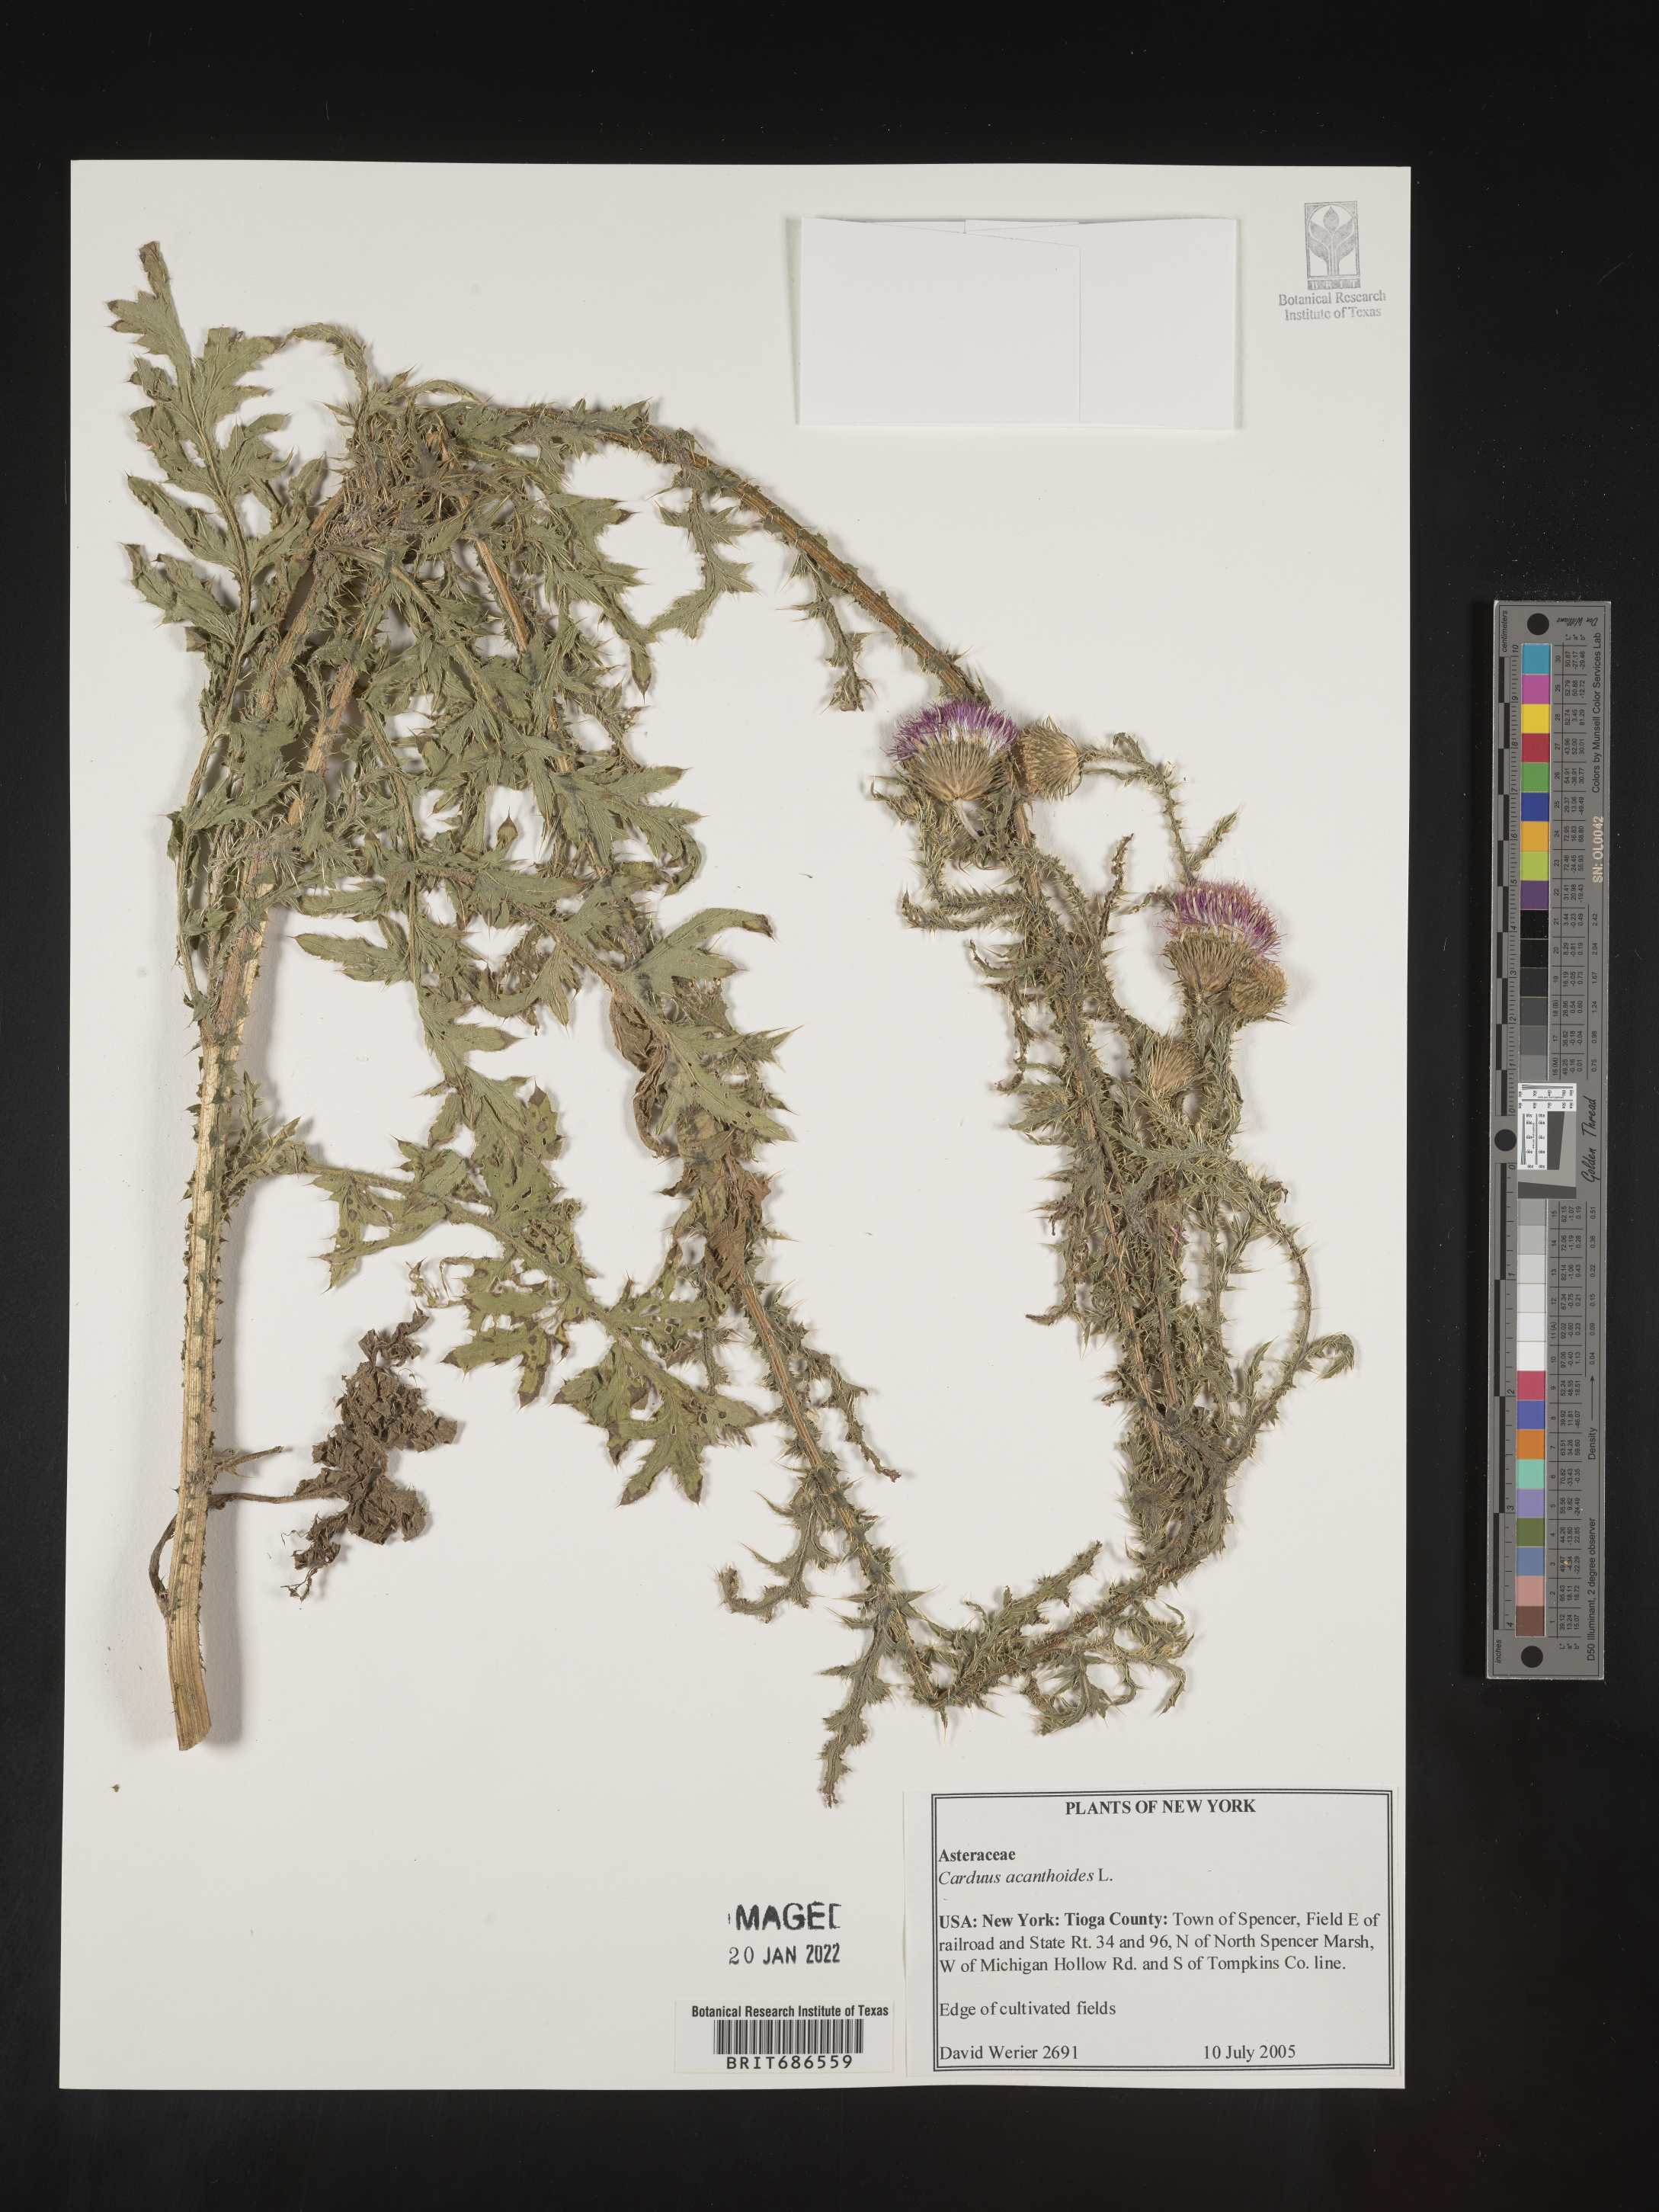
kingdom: Plantae
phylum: Tracheophyta
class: Magnoliopsida
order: Asterales
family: Asteraceae
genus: Carduus
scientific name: Carduus acanthoides
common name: Plumeless thistle
